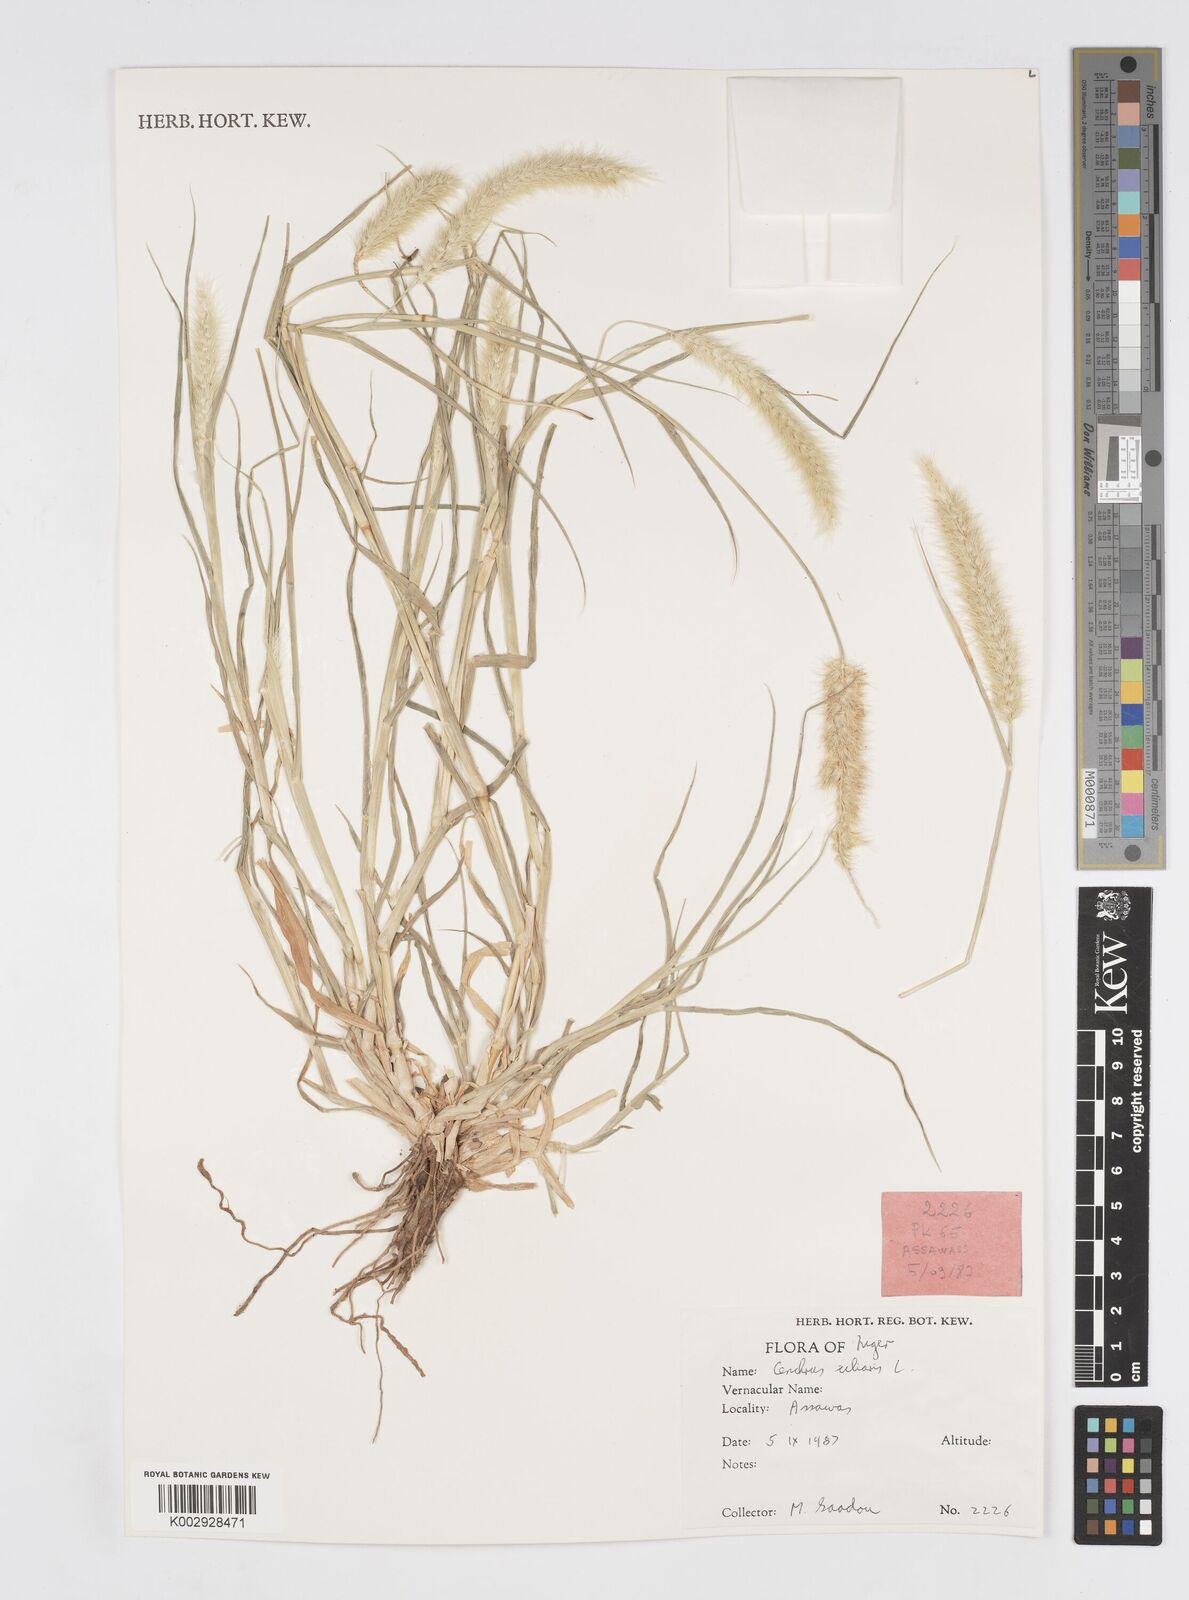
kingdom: Plantae
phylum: Tracheophyta
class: Liliopsida
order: Poales
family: Poaceae
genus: Cenchrus
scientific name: Cenchrus ciliaris
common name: Buffelgrass
